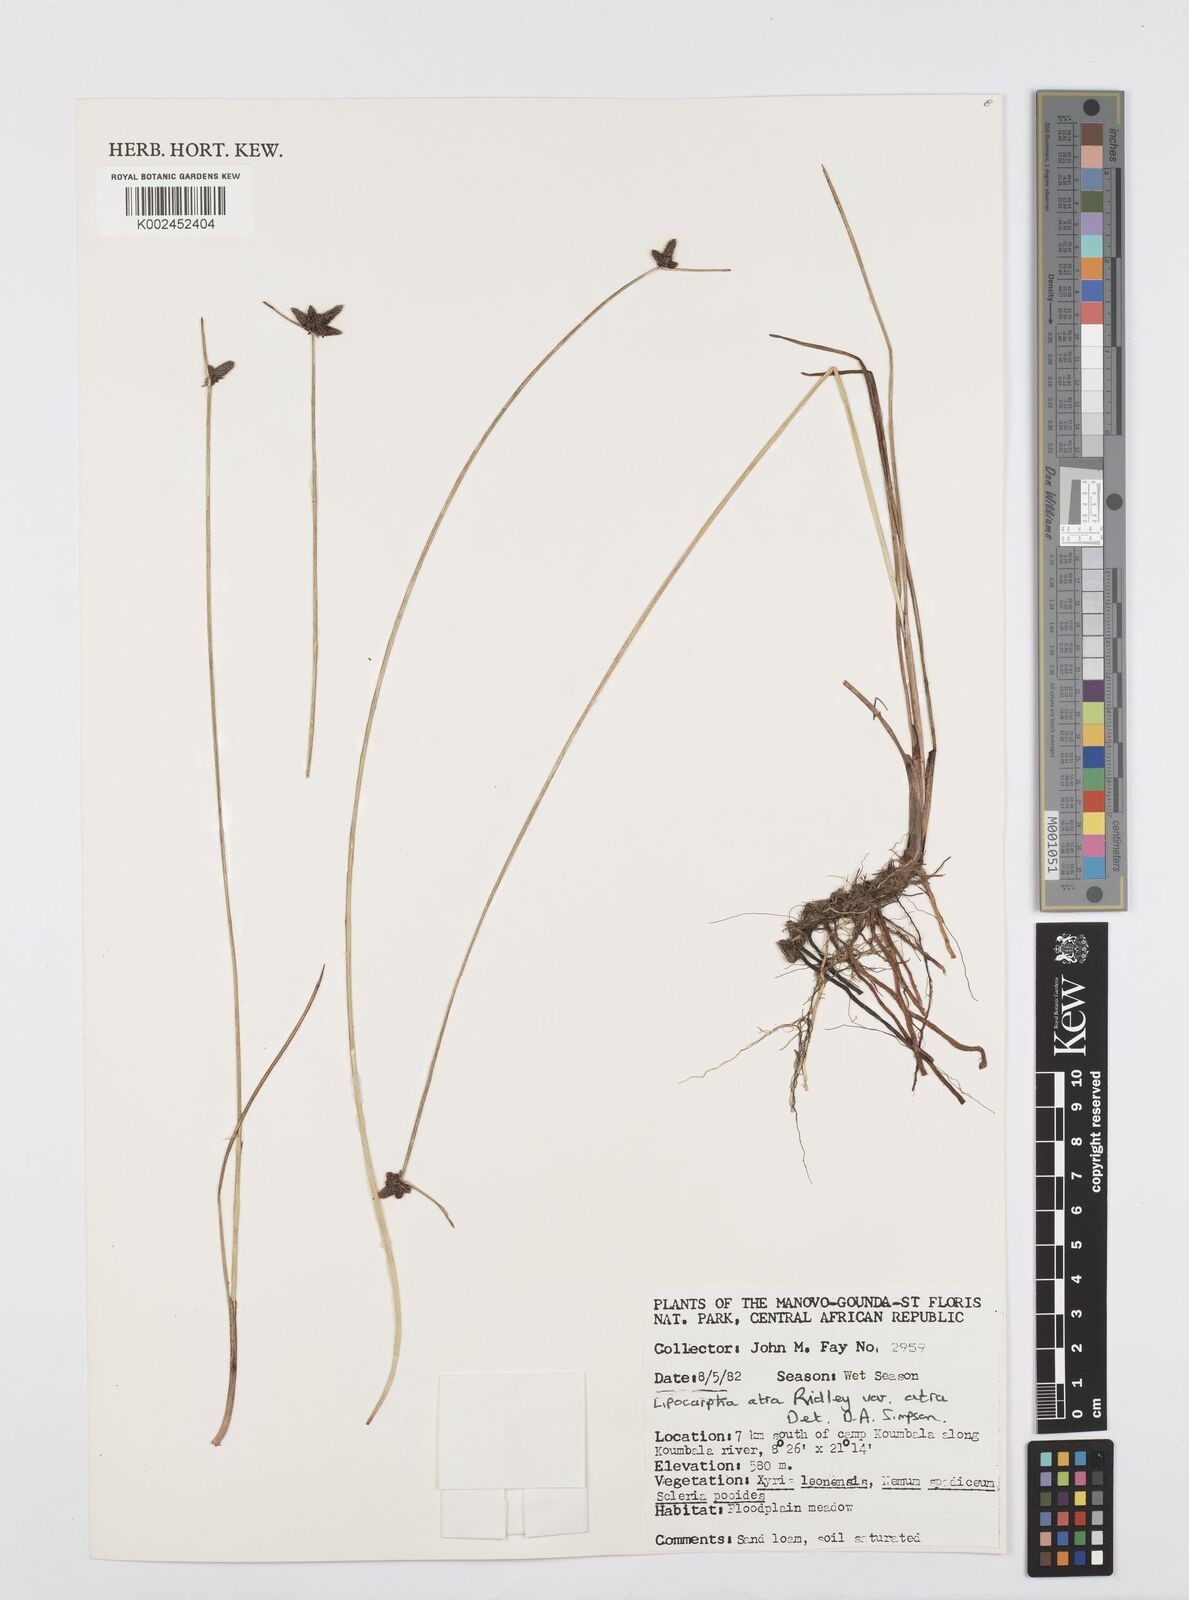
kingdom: Plantae
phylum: Tracheophyta
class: Liliopsida
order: Poales
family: Cyperaceae
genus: Cyperus
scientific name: Cyperus
